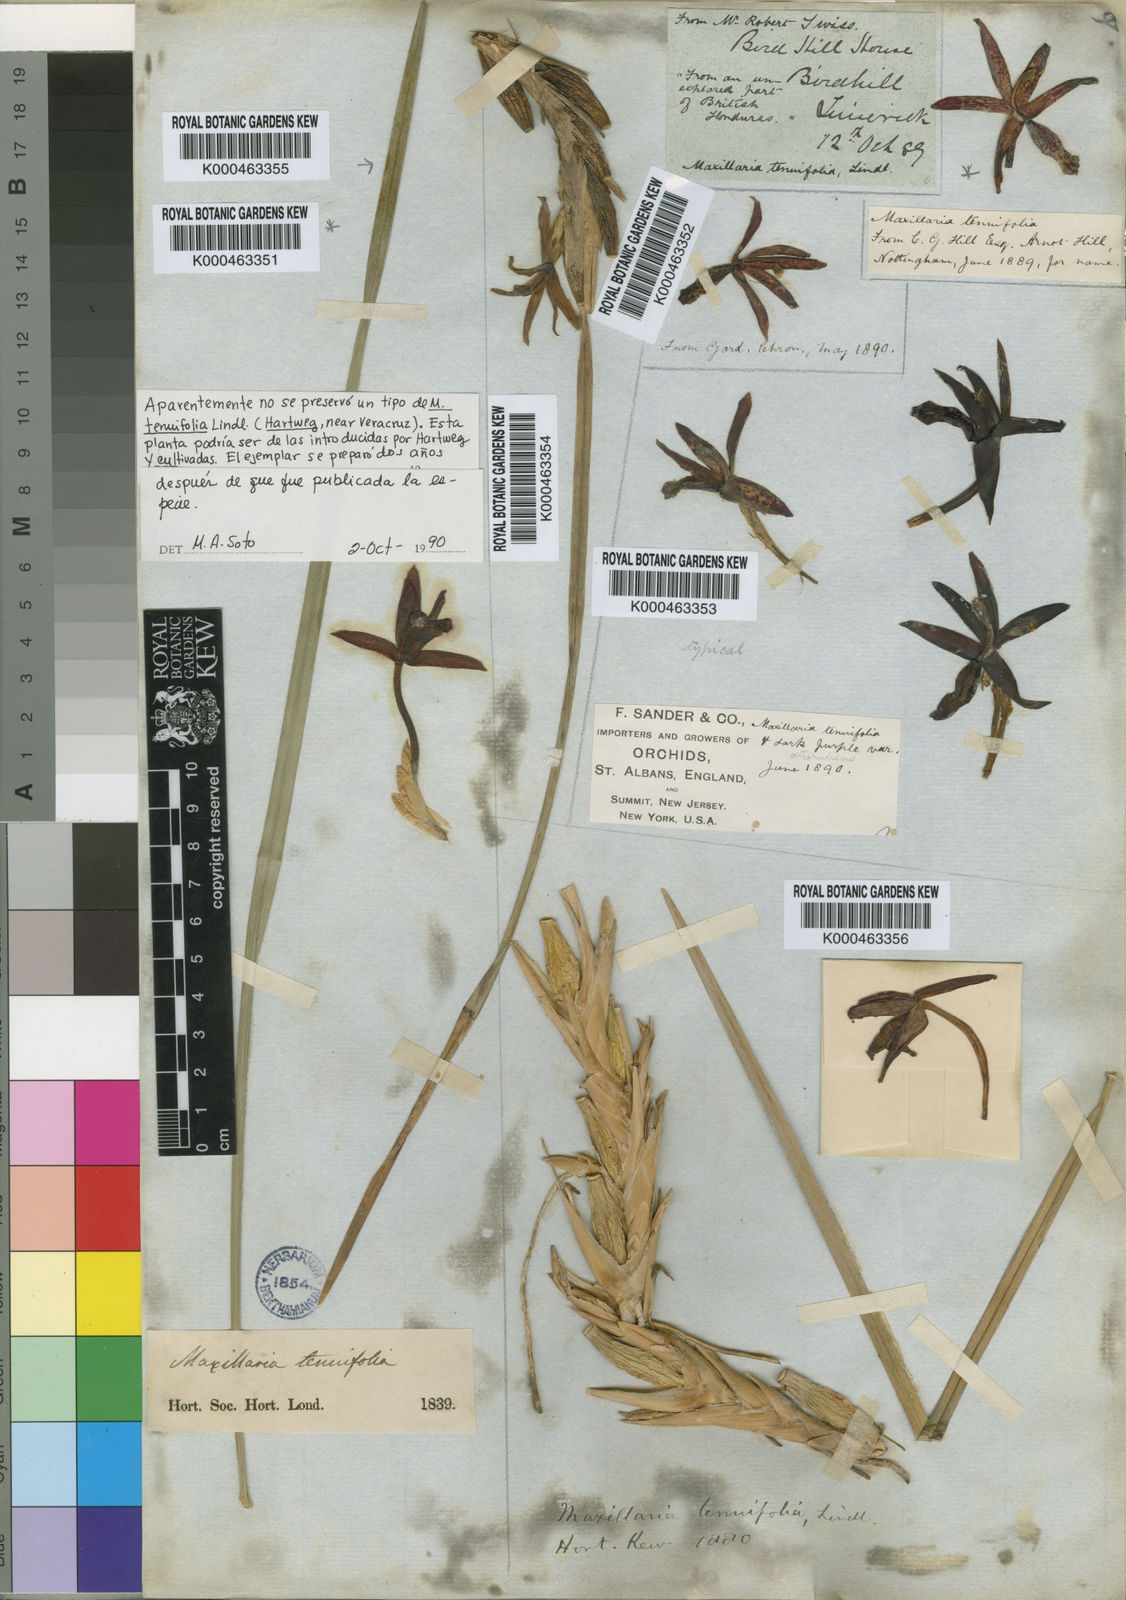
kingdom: Plantae
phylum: Tracheophyta
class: Liliopsida
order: Asparagales
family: Orchidaceae
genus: Maxillaria
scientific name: Maxillaria tenuifolia
